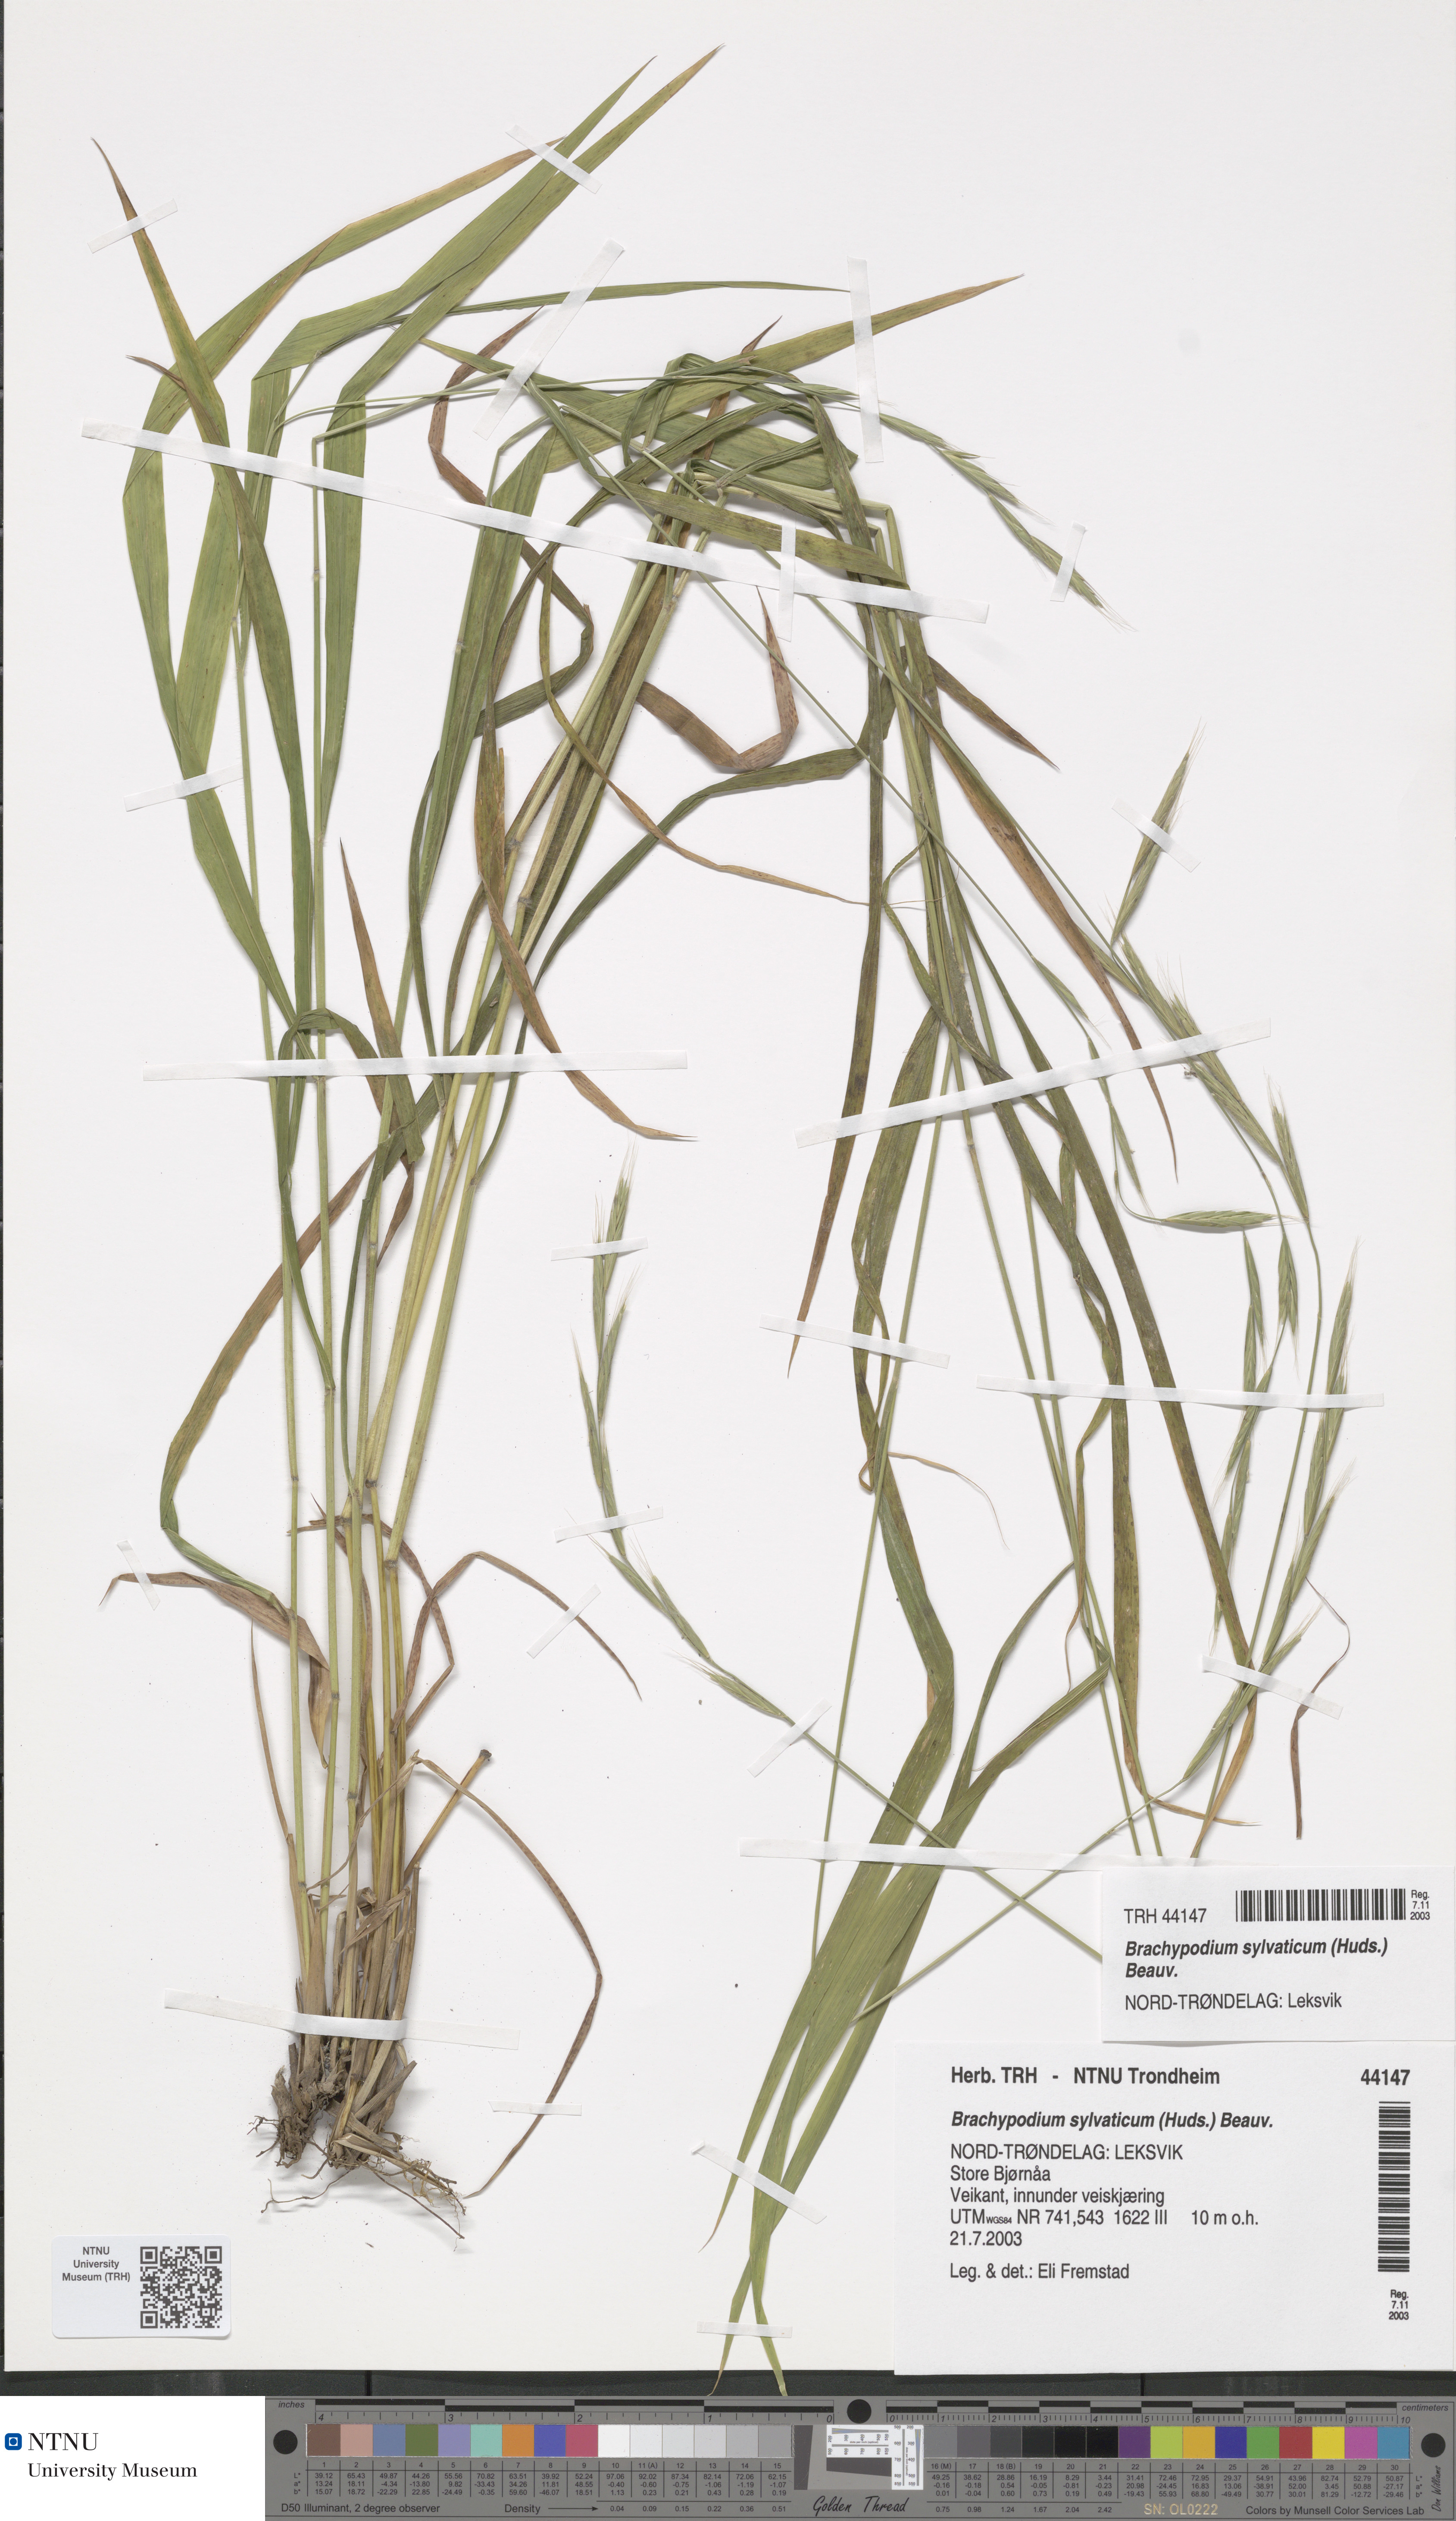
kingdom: Plantae
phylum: Tracheophyta
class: Liliopsida
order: Poales
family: Poaceae
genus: Brachypodium
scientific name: Brachypodium sylvaticum
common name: False-brome
